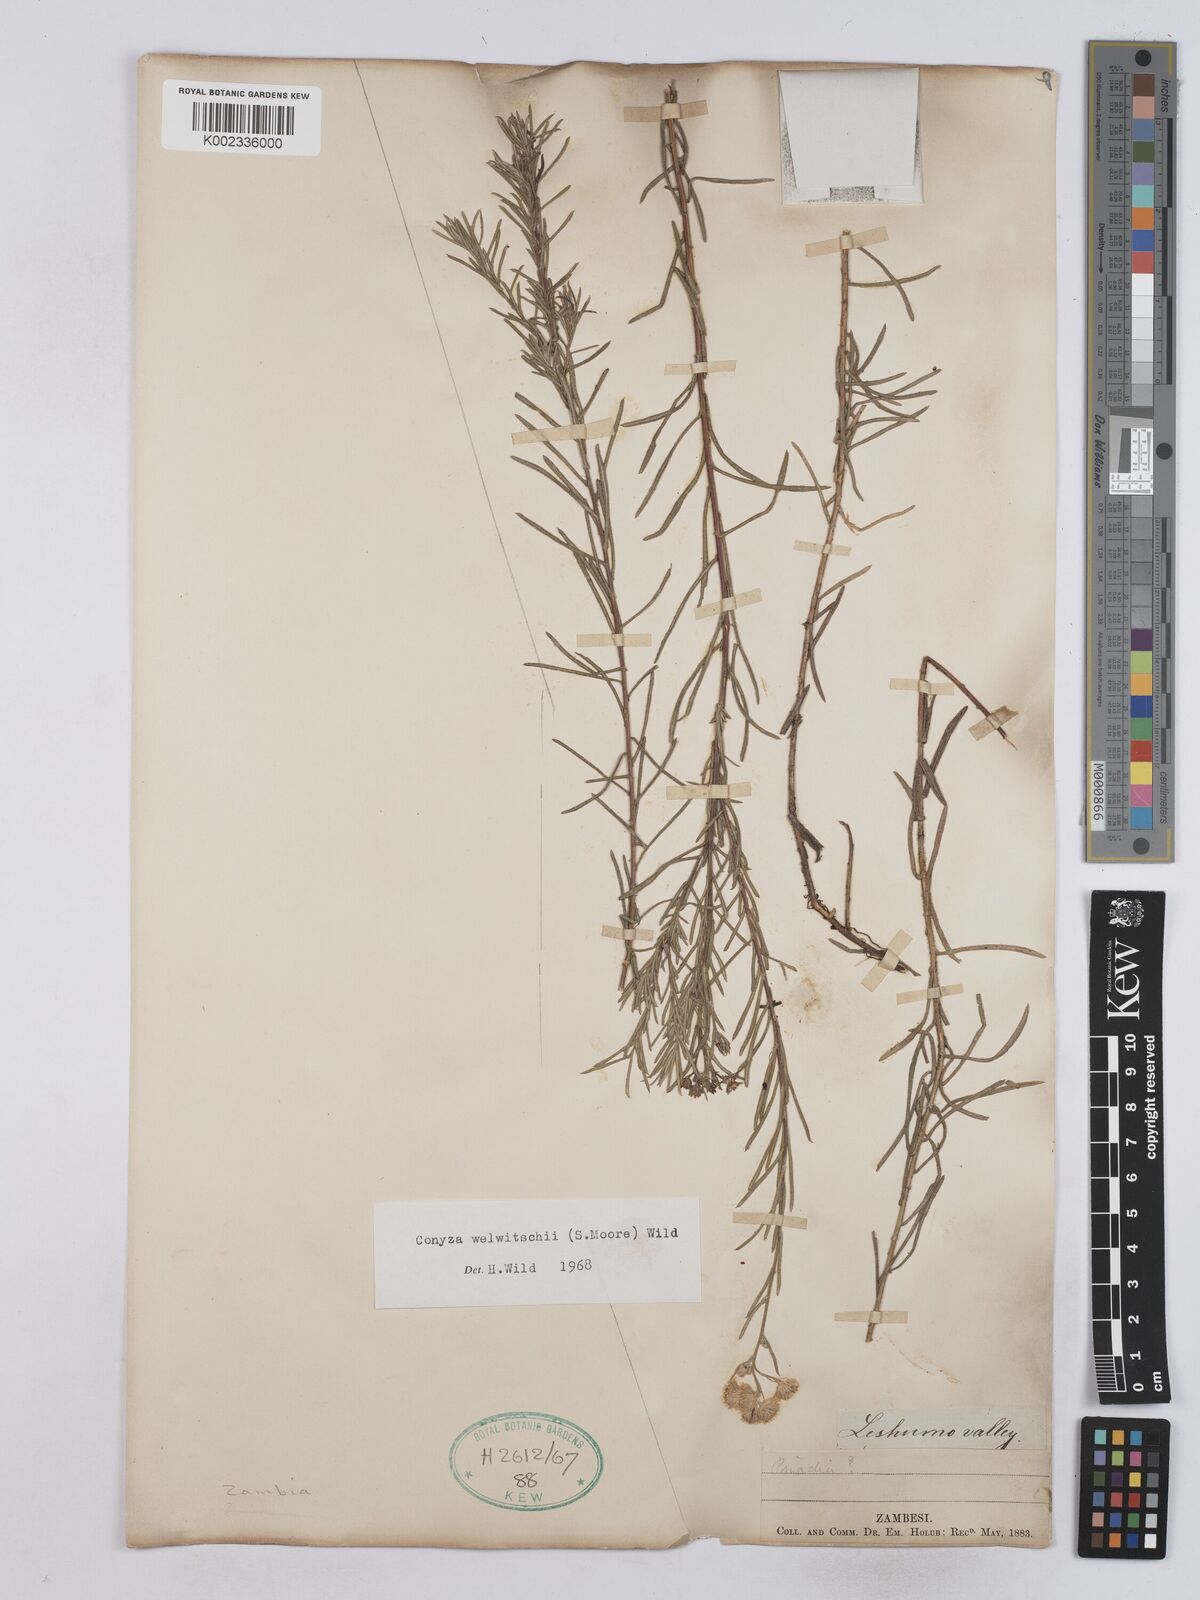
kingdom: Plantae
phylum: Tracheophyta
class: Magnoliopsida
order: Asterales
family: Asteraceae
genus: Nidorella
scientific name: Nidorella welwitschii
